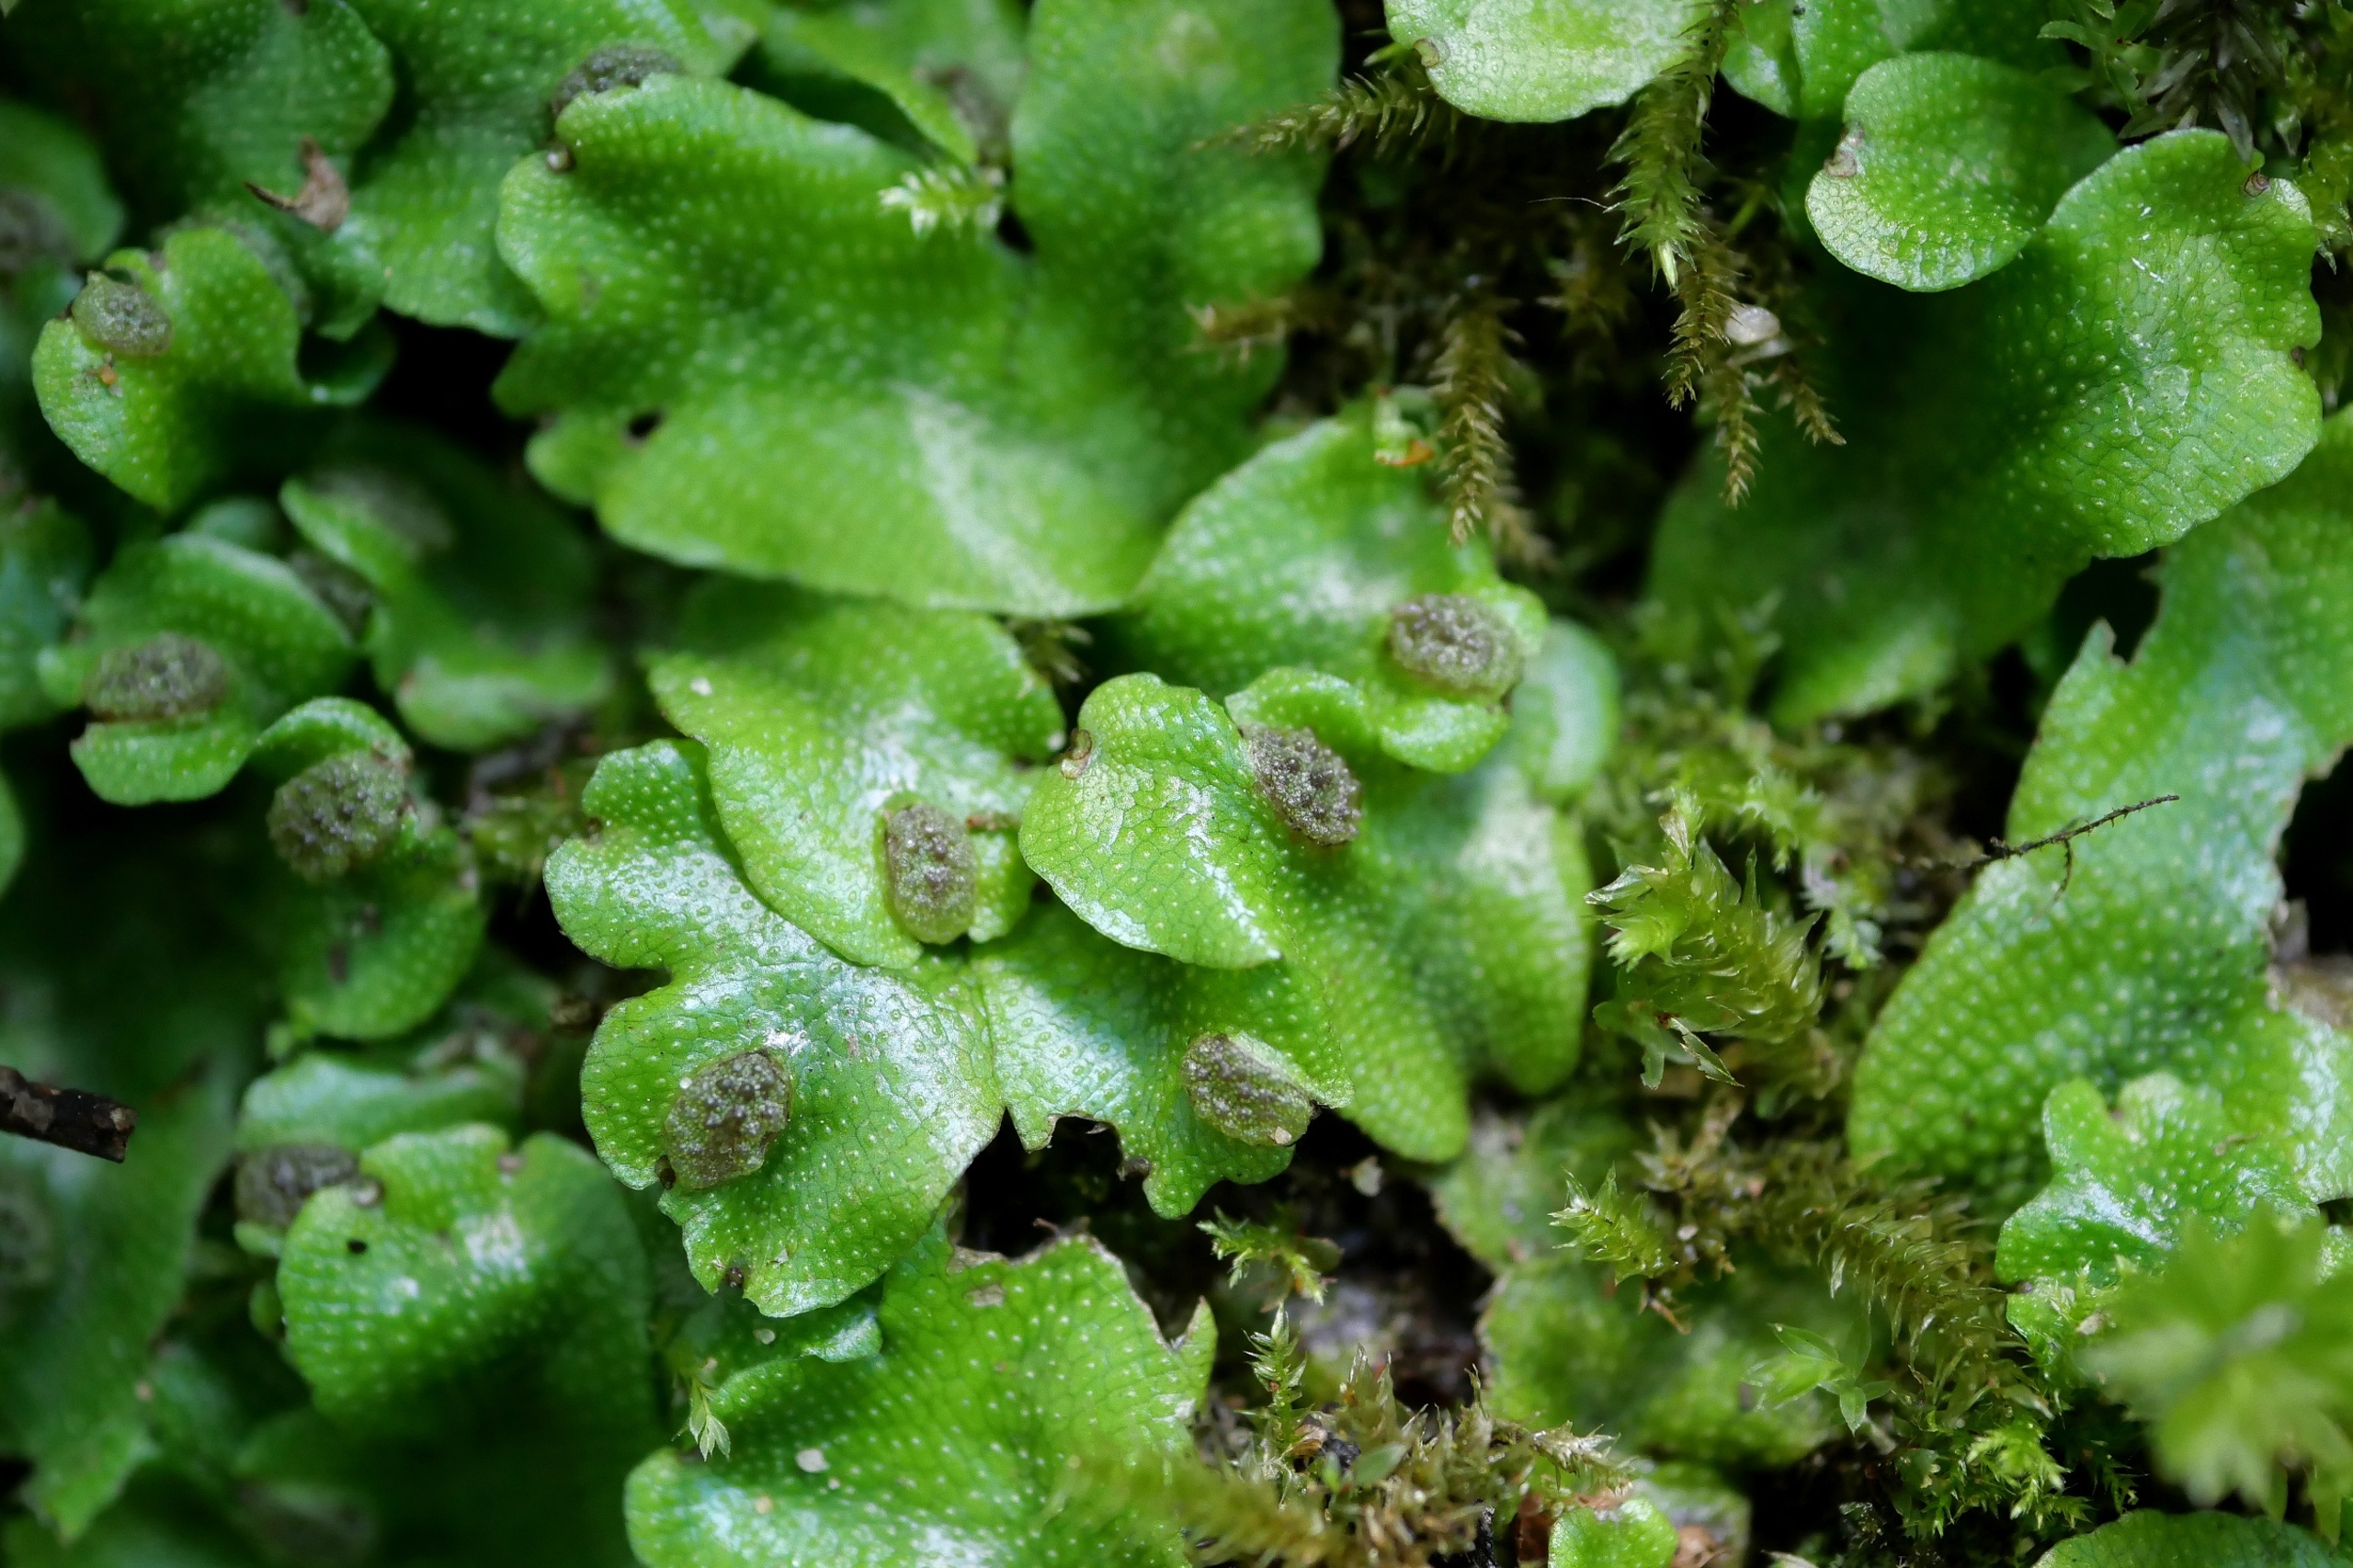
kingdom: Plantae
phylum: Marchantiophyta
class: Marchantiopsida
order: Marchantiales
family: Conocephalaceae
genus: Conocephalum
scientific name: Conocephalum conicum
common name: Glat krokodillemos
